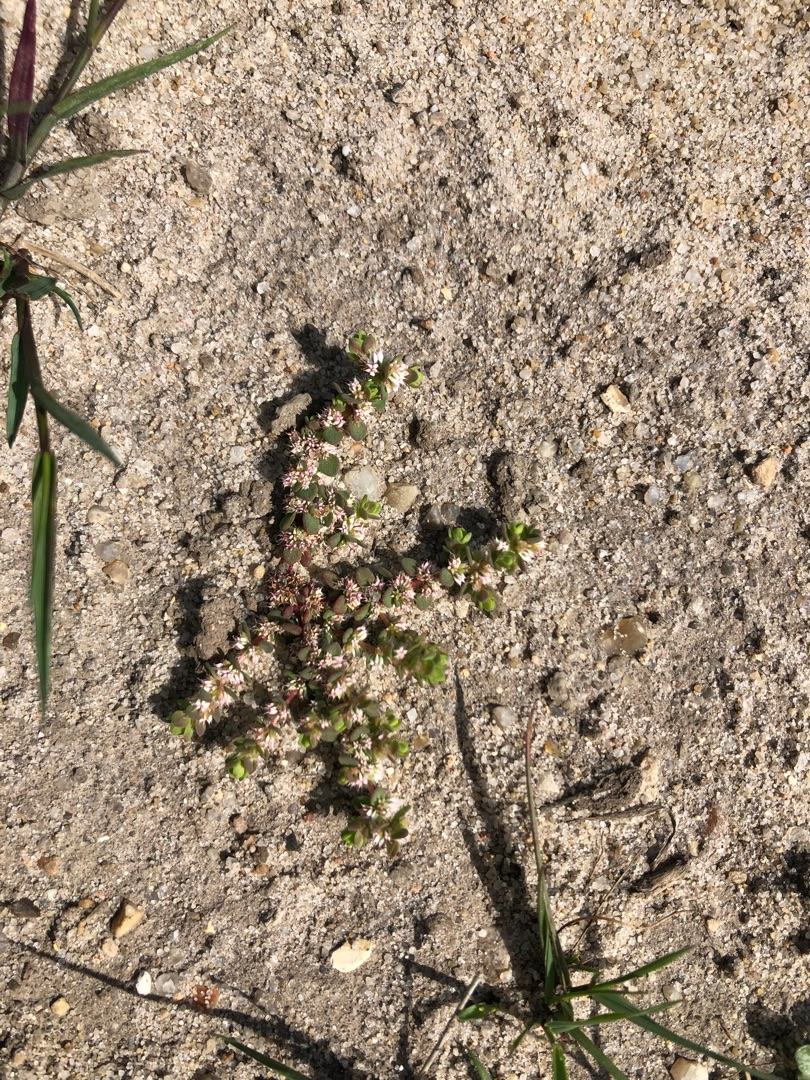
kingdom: Plantae
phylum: Tracheophyta
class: Magnoliopsida
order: Caryophyllales
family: Caryophyllaceae
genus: Illecebrum
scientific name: Illecebrum verticillatum
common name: Bruskbæger
